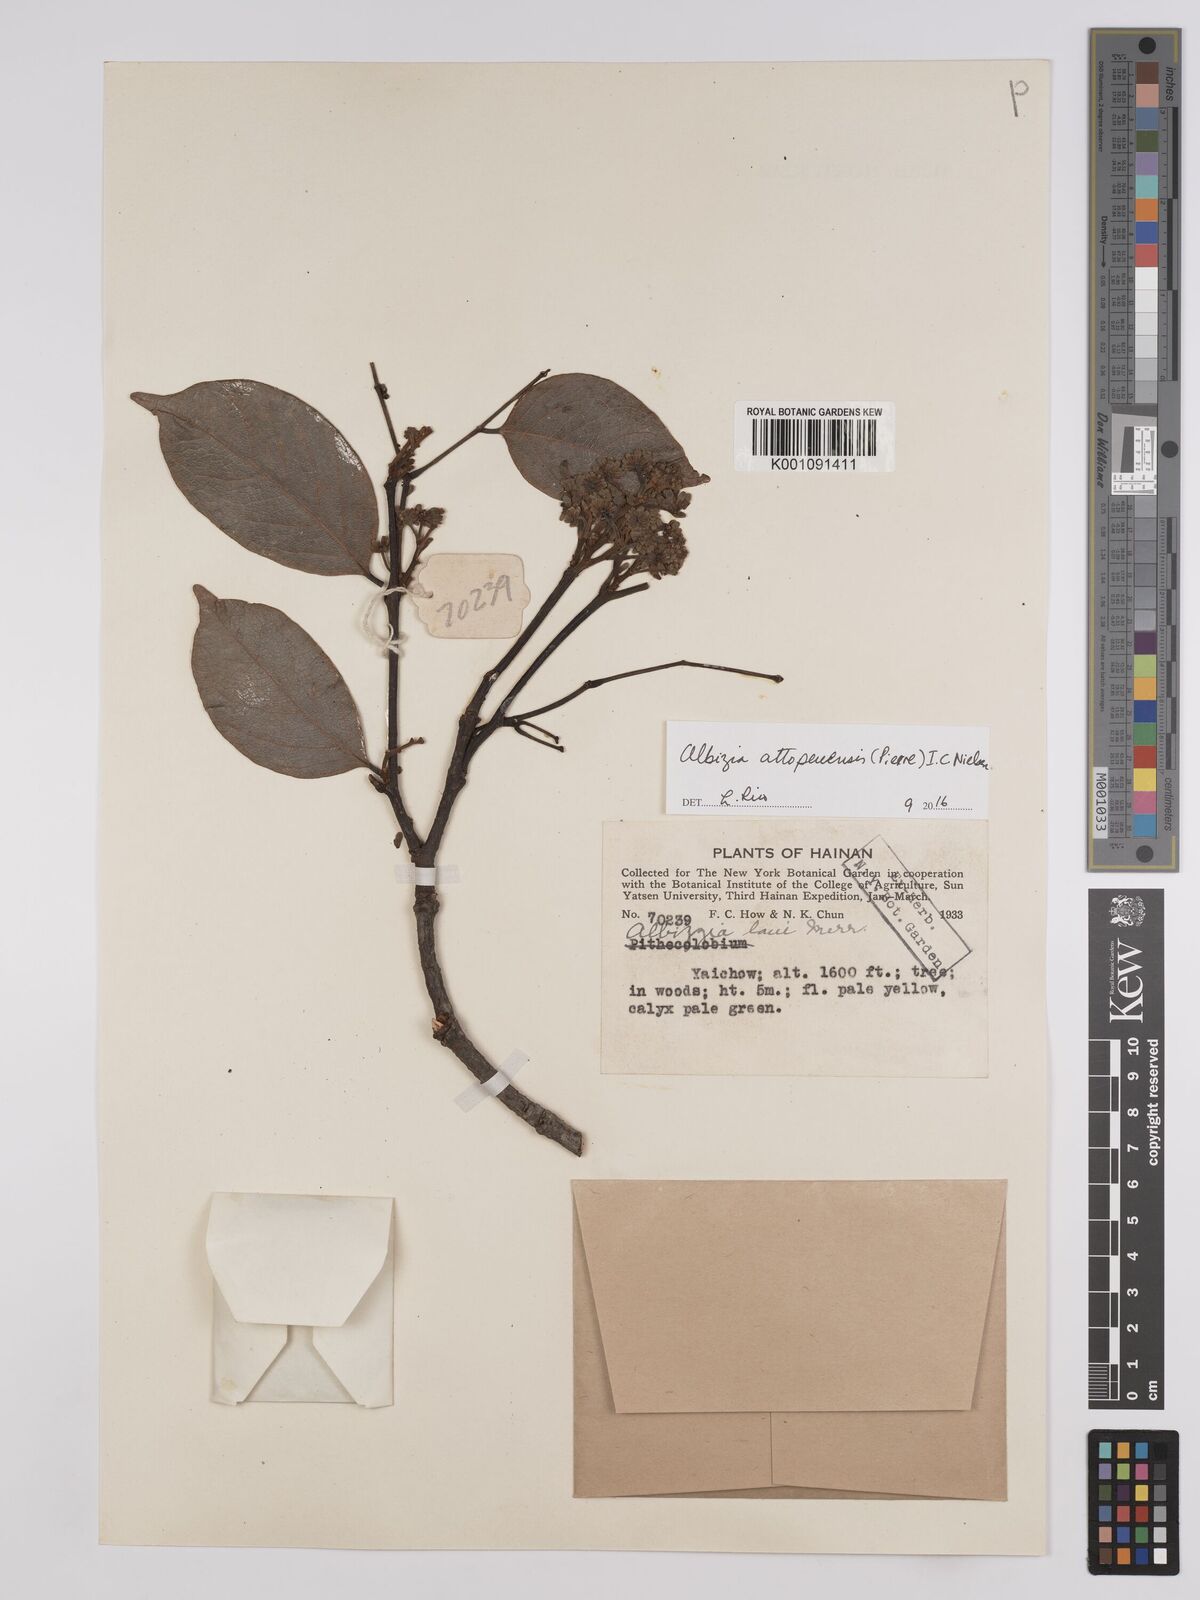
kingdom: Plantae
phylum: Tracheophyta
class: Magnoliopsida
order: Fabales
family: Fabaceae
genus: Albizia
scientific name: Albizia
